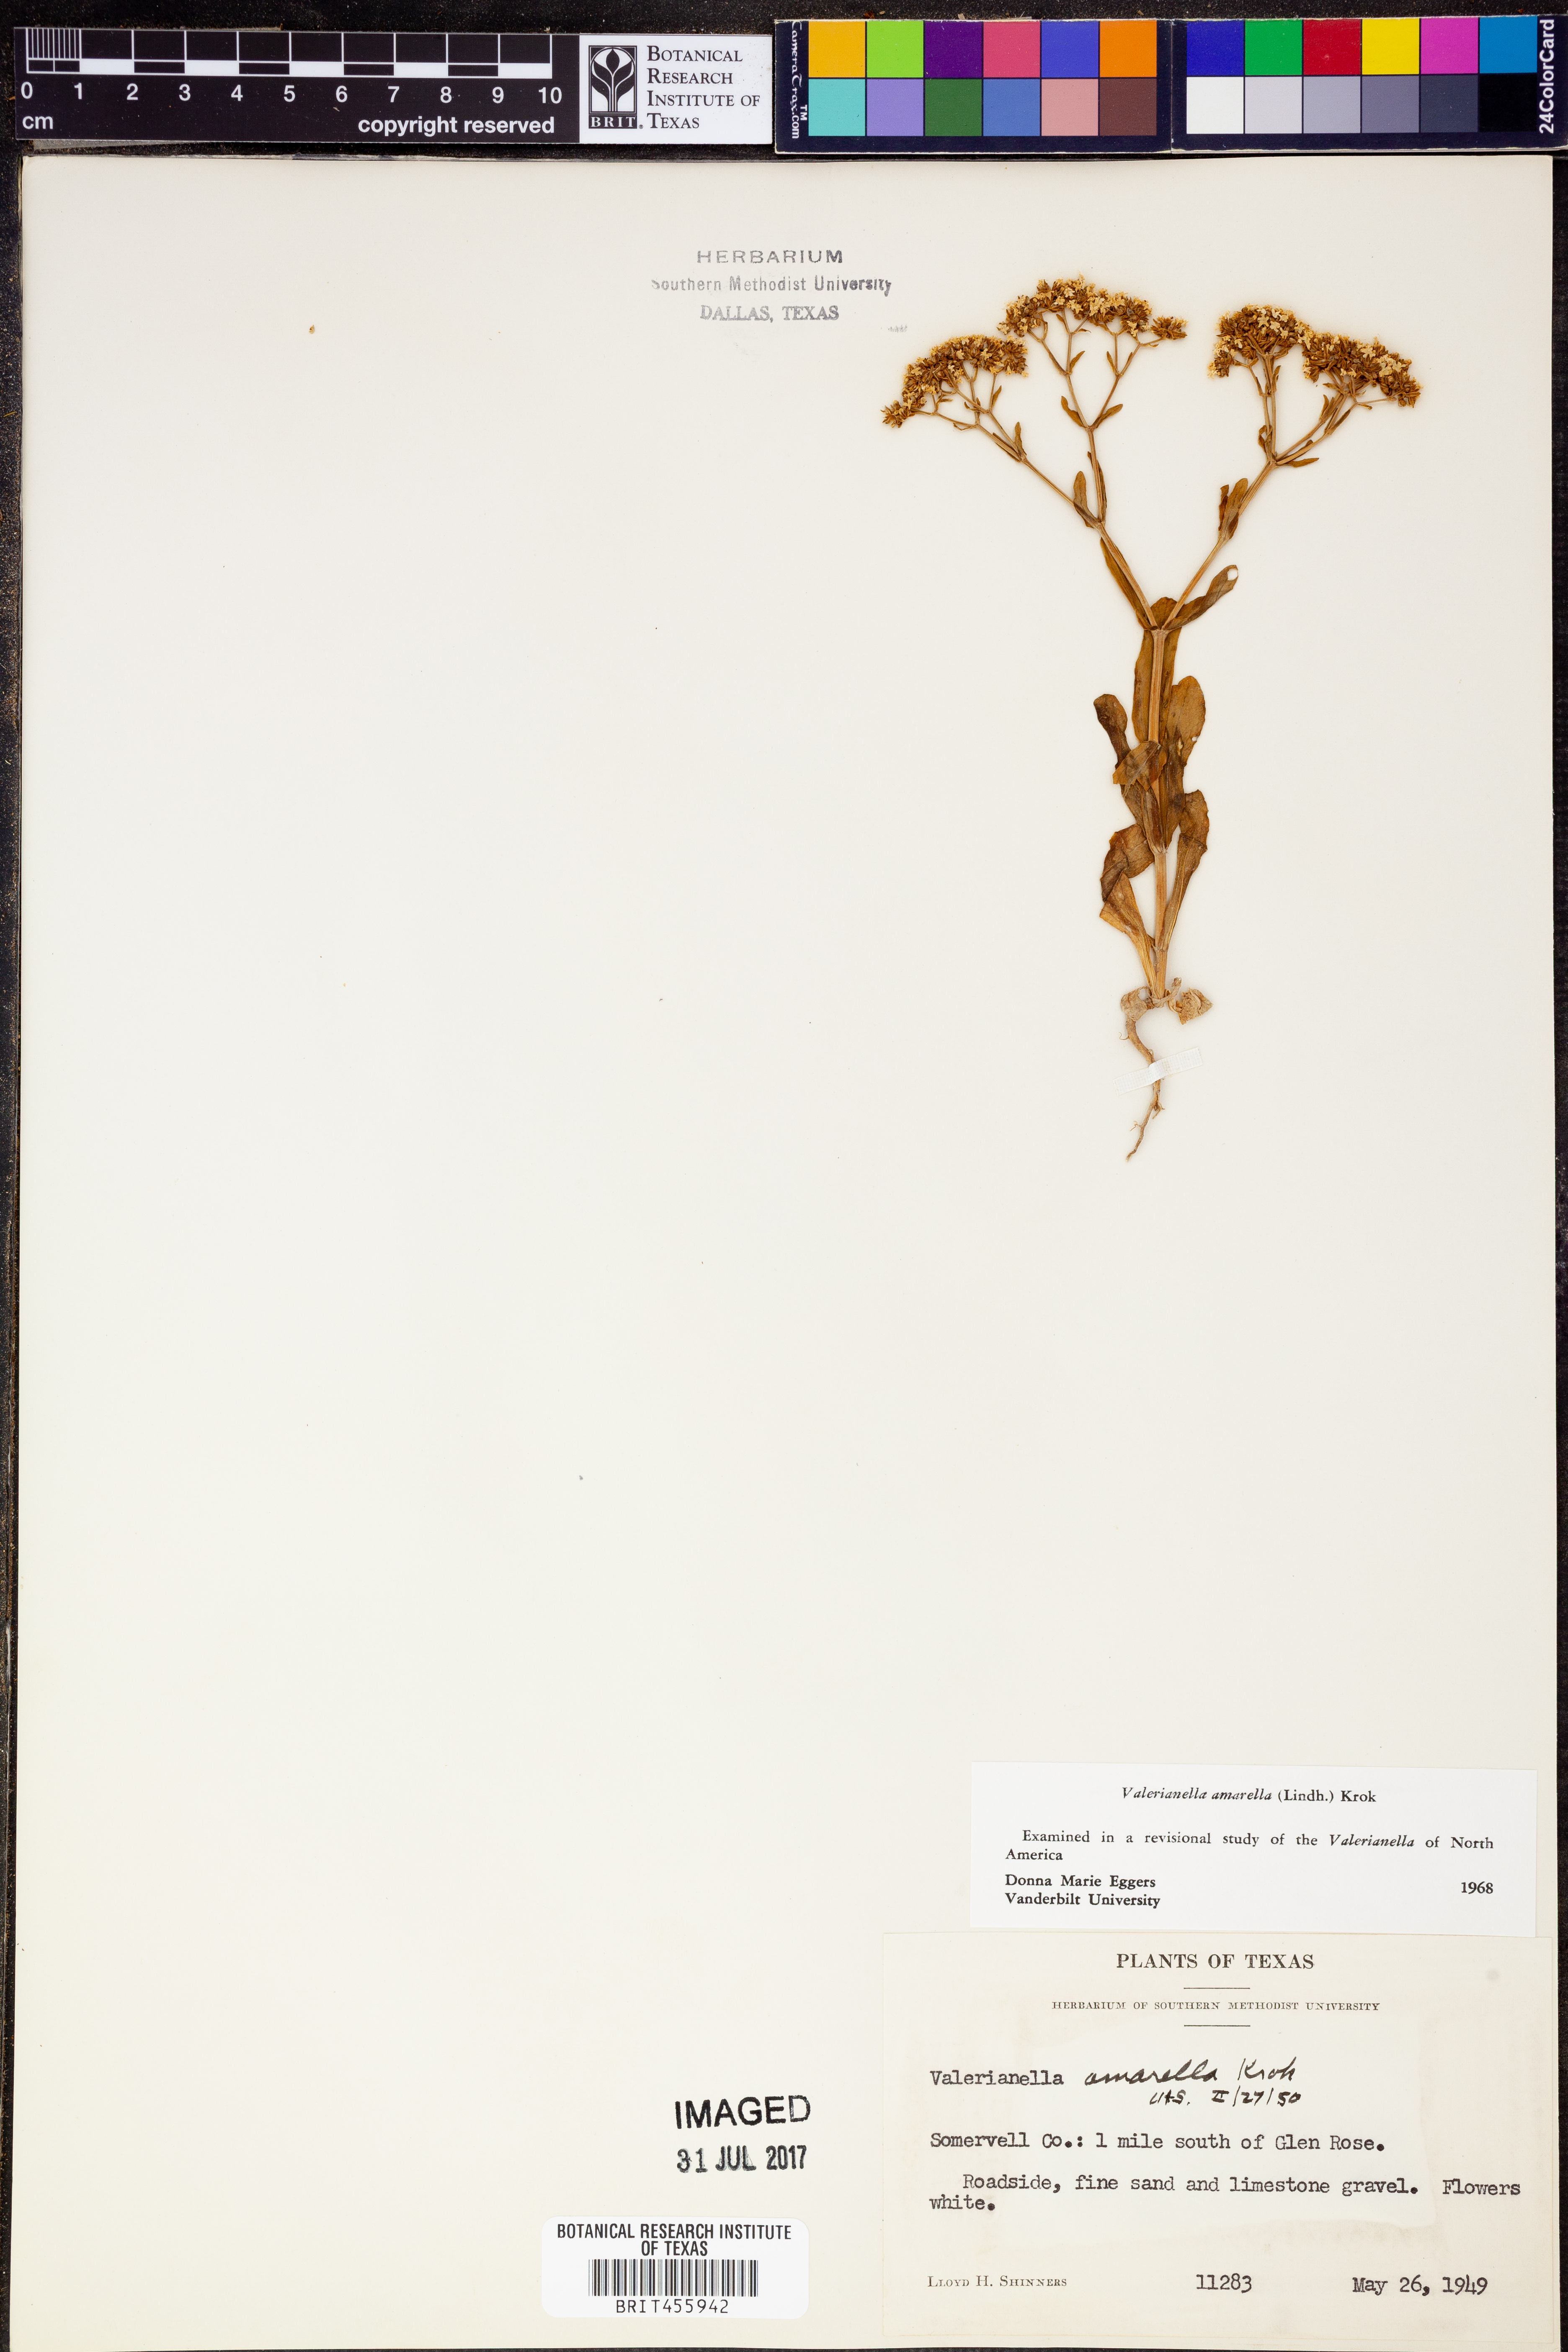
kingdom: Plantae
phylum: Tracheophyta
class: Magnoliopsida
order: Dipsacales
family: Caprifoliaceae
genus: Valerianella
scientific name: Valerianella amarella
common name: Hariy cornsalad
